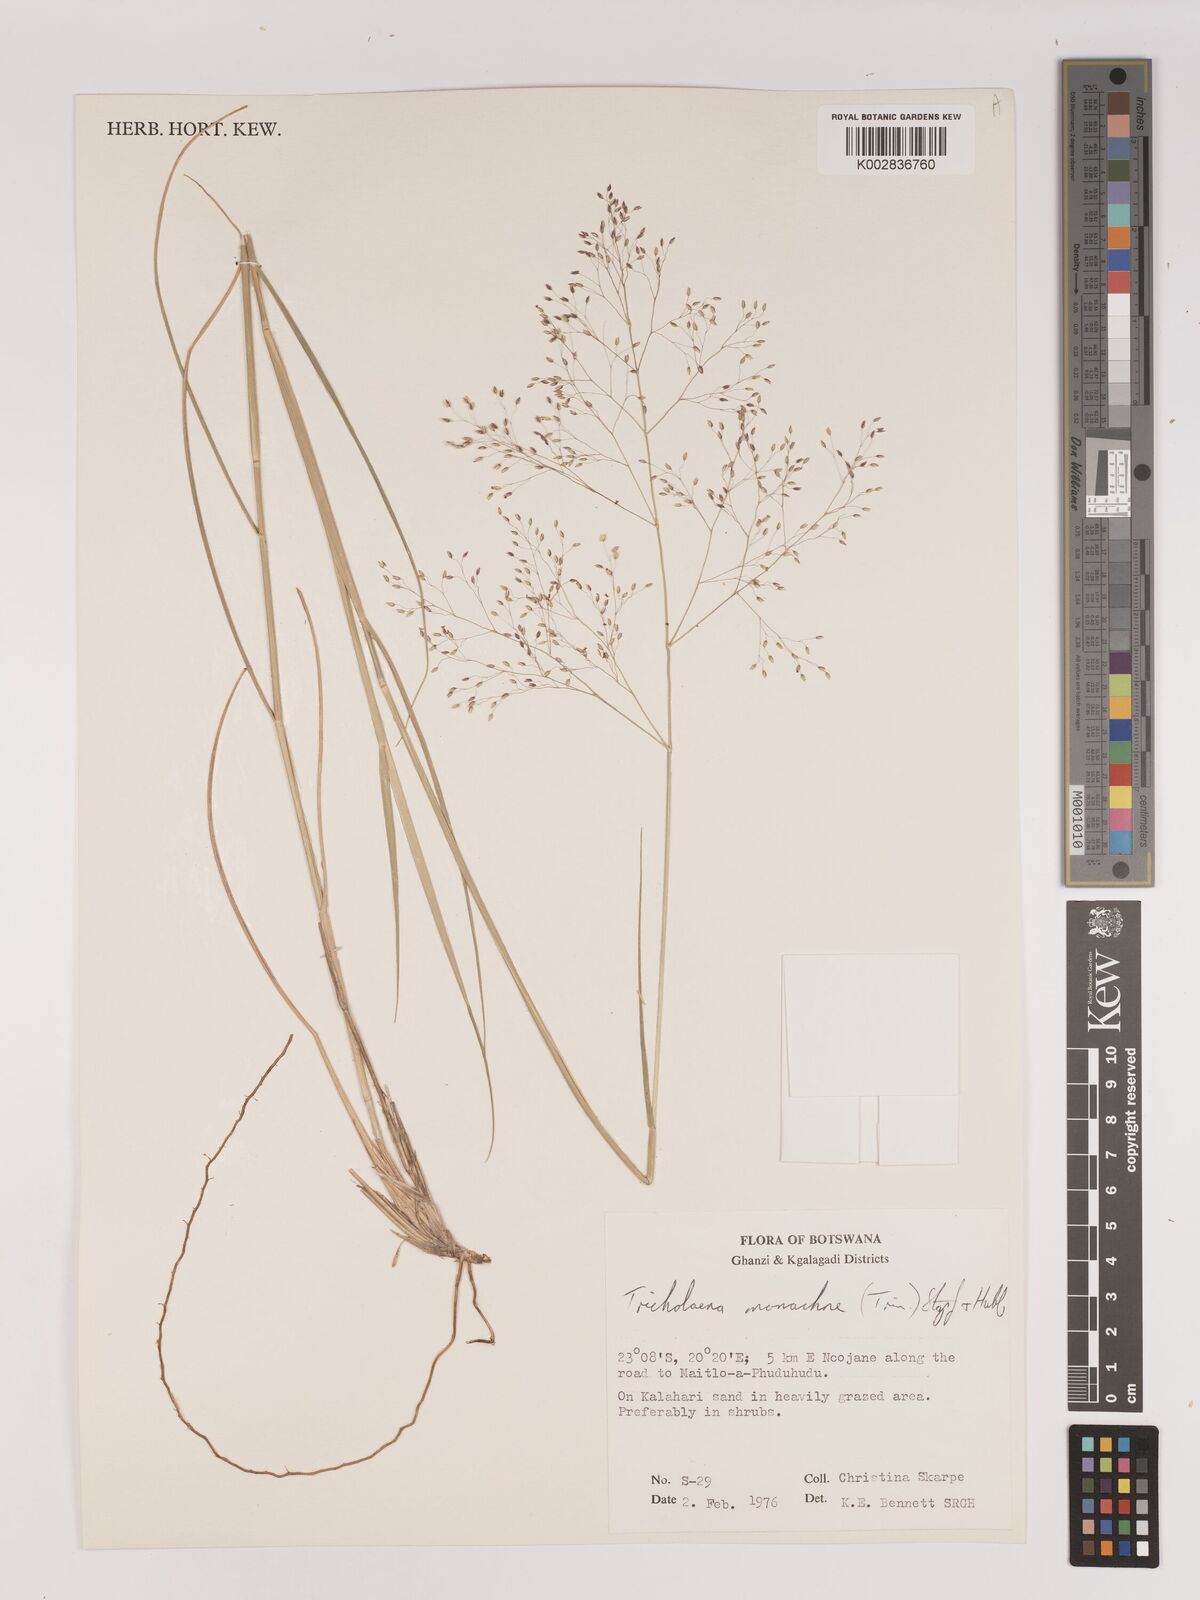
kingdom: Plantae
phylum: Tracheophyta
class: Liliopsida
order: Poales
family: Poaceae
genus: Tricholaena
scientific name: Tricholaena monachne
